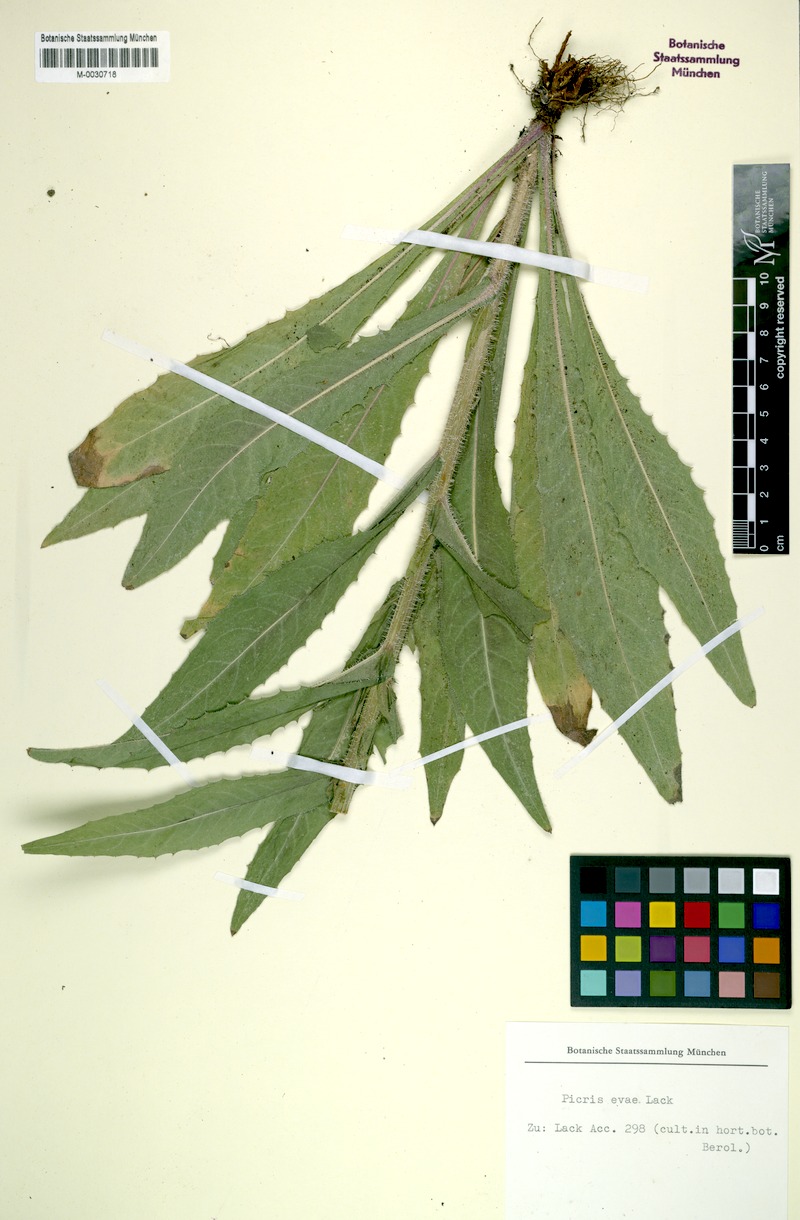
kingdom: Plantae
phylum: Tracheophyta
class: Magnoliopsida
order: Asterales
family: Asteraceae
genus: Picris
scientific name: Picris evae
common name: Hawkweed
